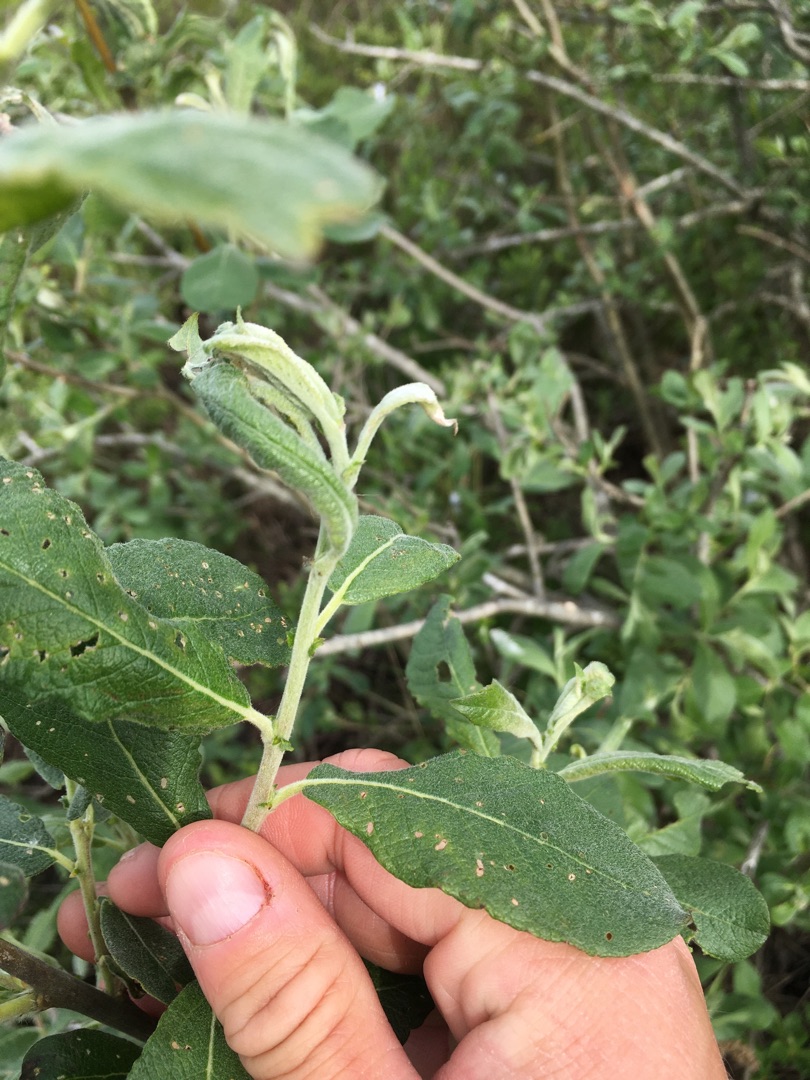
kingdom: Plantae
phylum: Tracheophyta
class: Magnoliopsida
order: Malpighiales
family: Salicaceae
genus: Salix
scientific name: Salix cinerea
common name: Grå-pil
